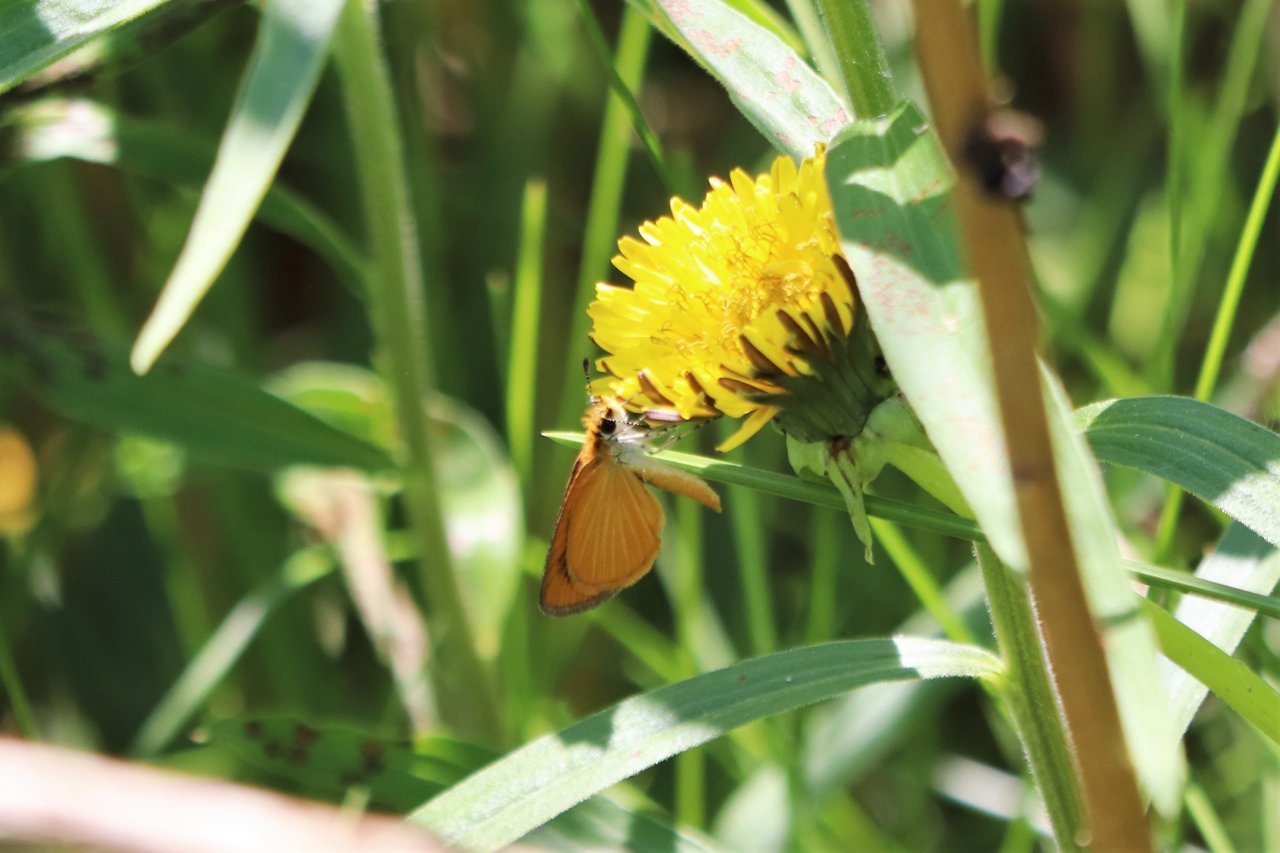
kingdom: Animalia
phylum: Arthropoda
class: Insecta
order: Lepidoptera
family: Hesperiidae
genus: Ancyloxypha
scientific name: Ancyloxypha numitor
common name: Least Skipper
